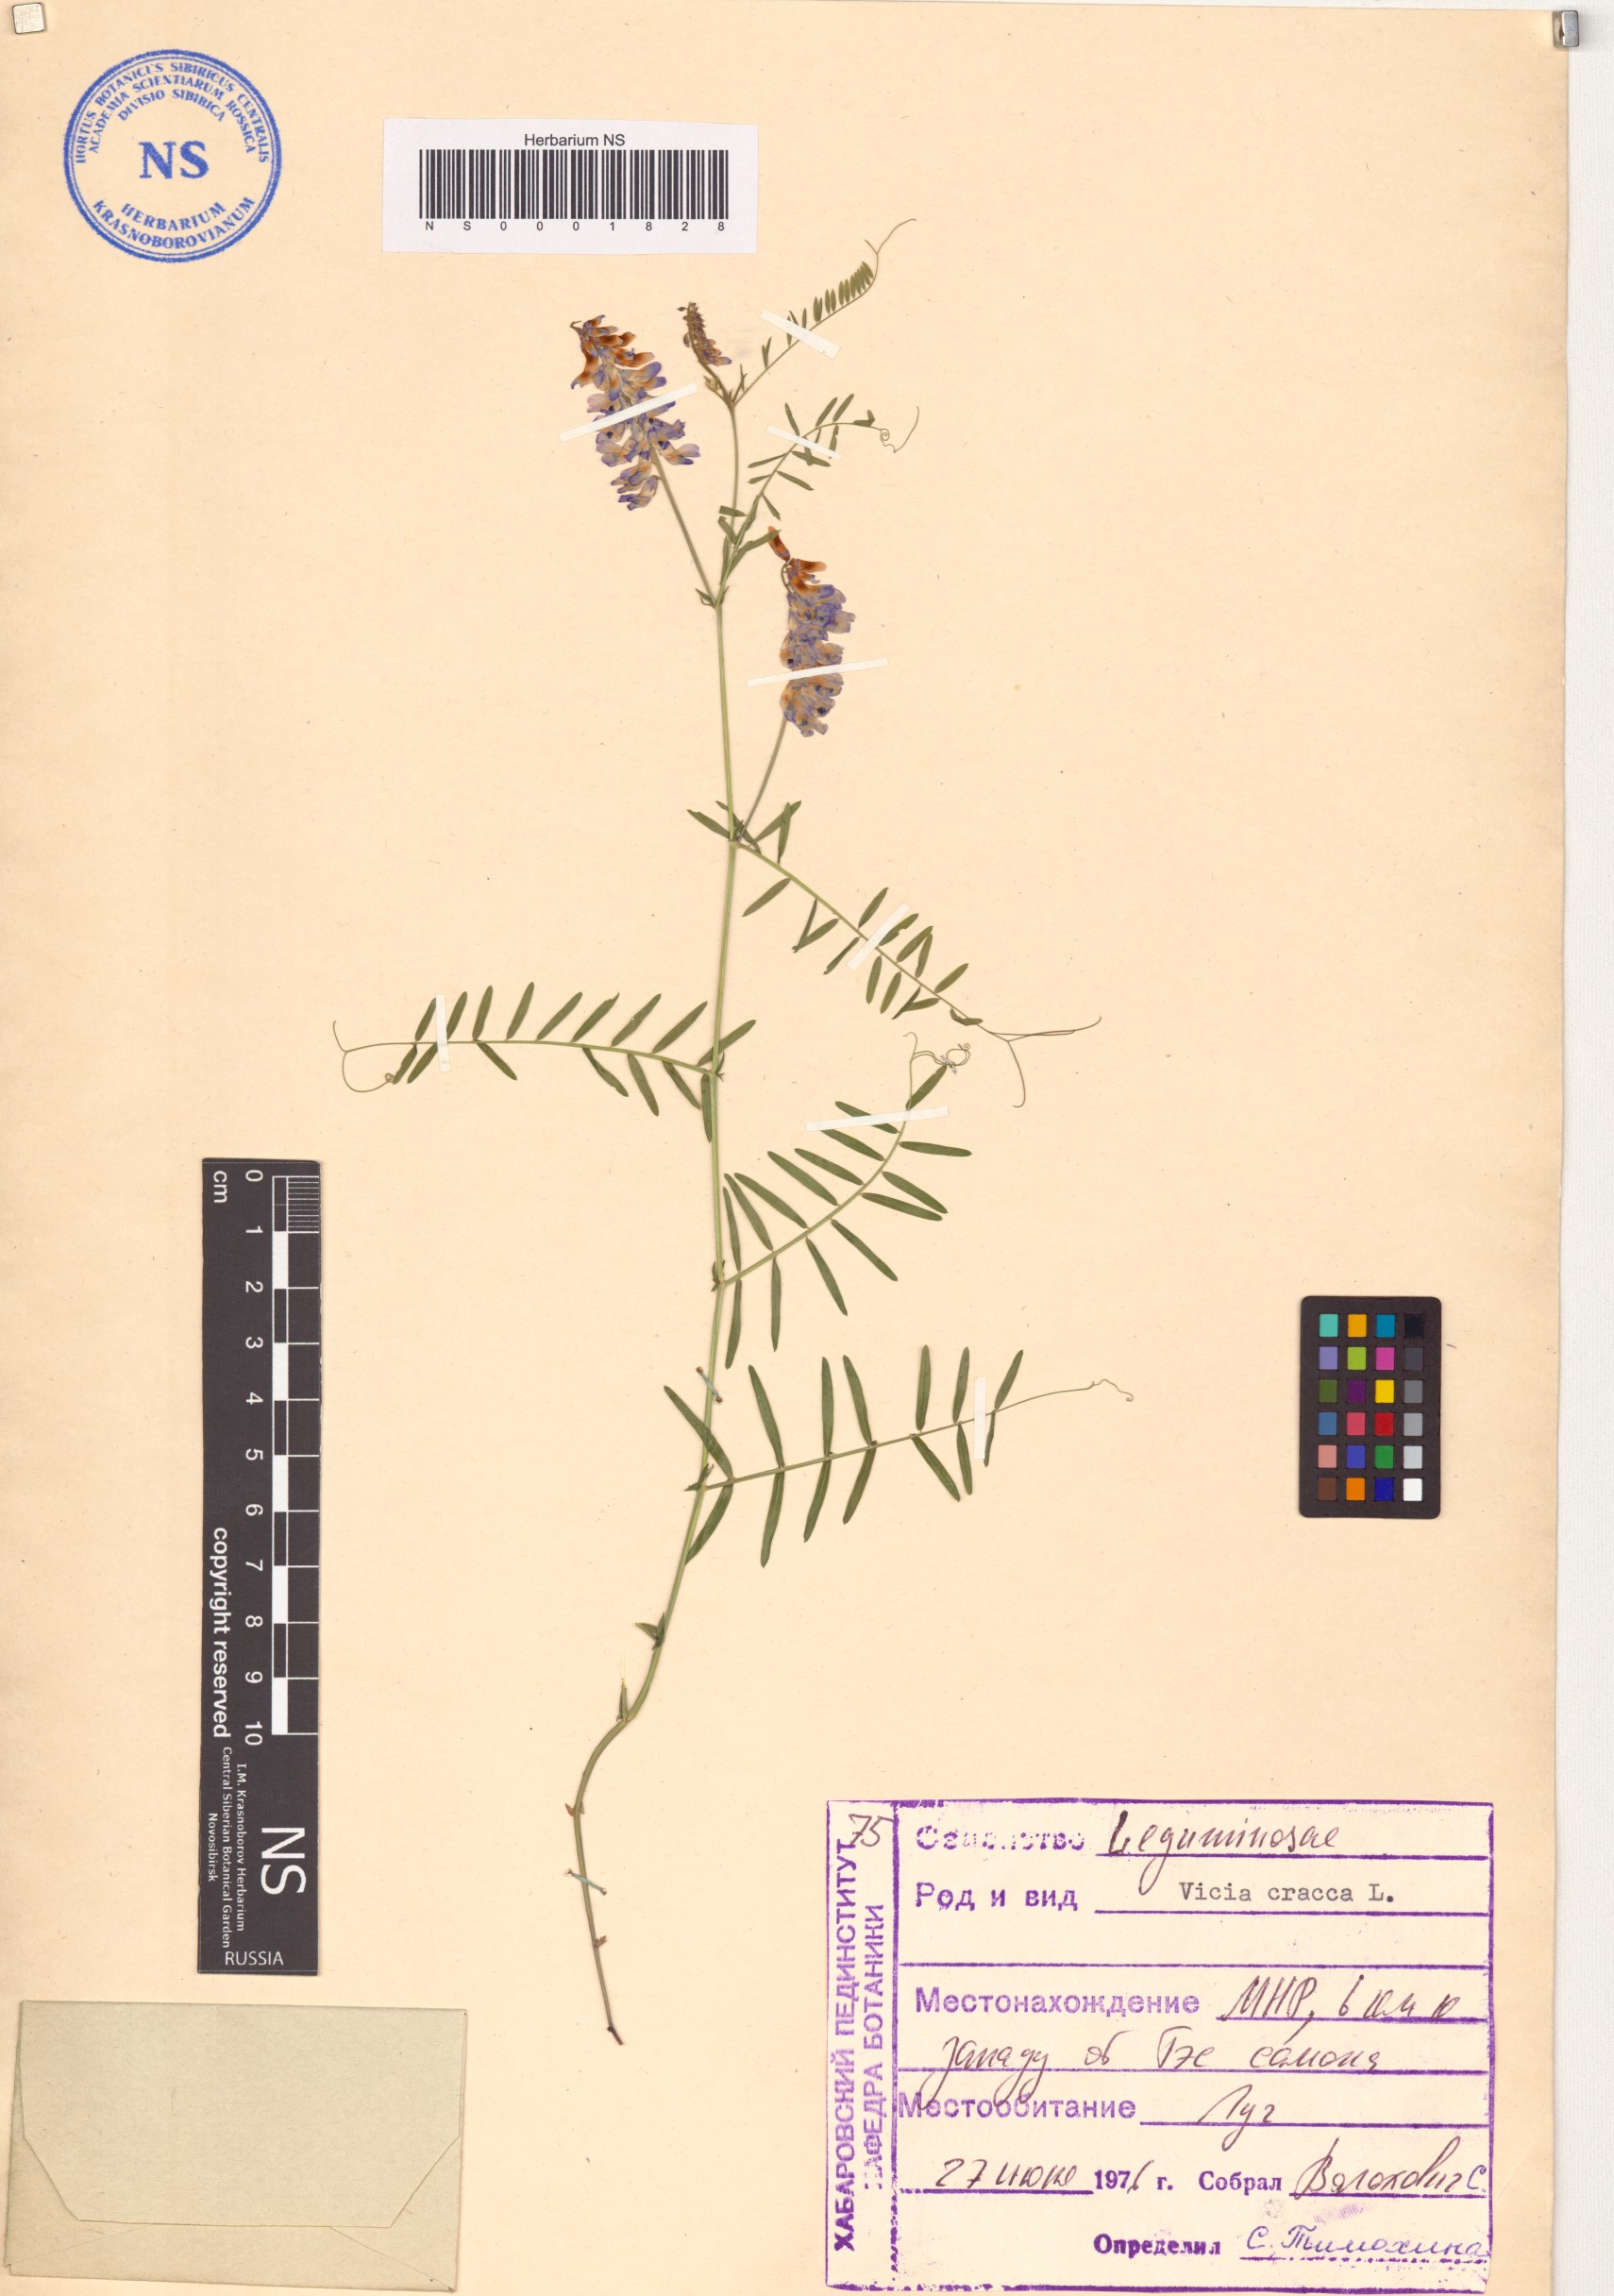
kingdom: Plantae
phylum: Tracheophyta
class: Magnoliopsida
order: Fabales
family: Fabaceae
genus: Vicia
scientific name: Vicia cracca
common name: Bird vetch
